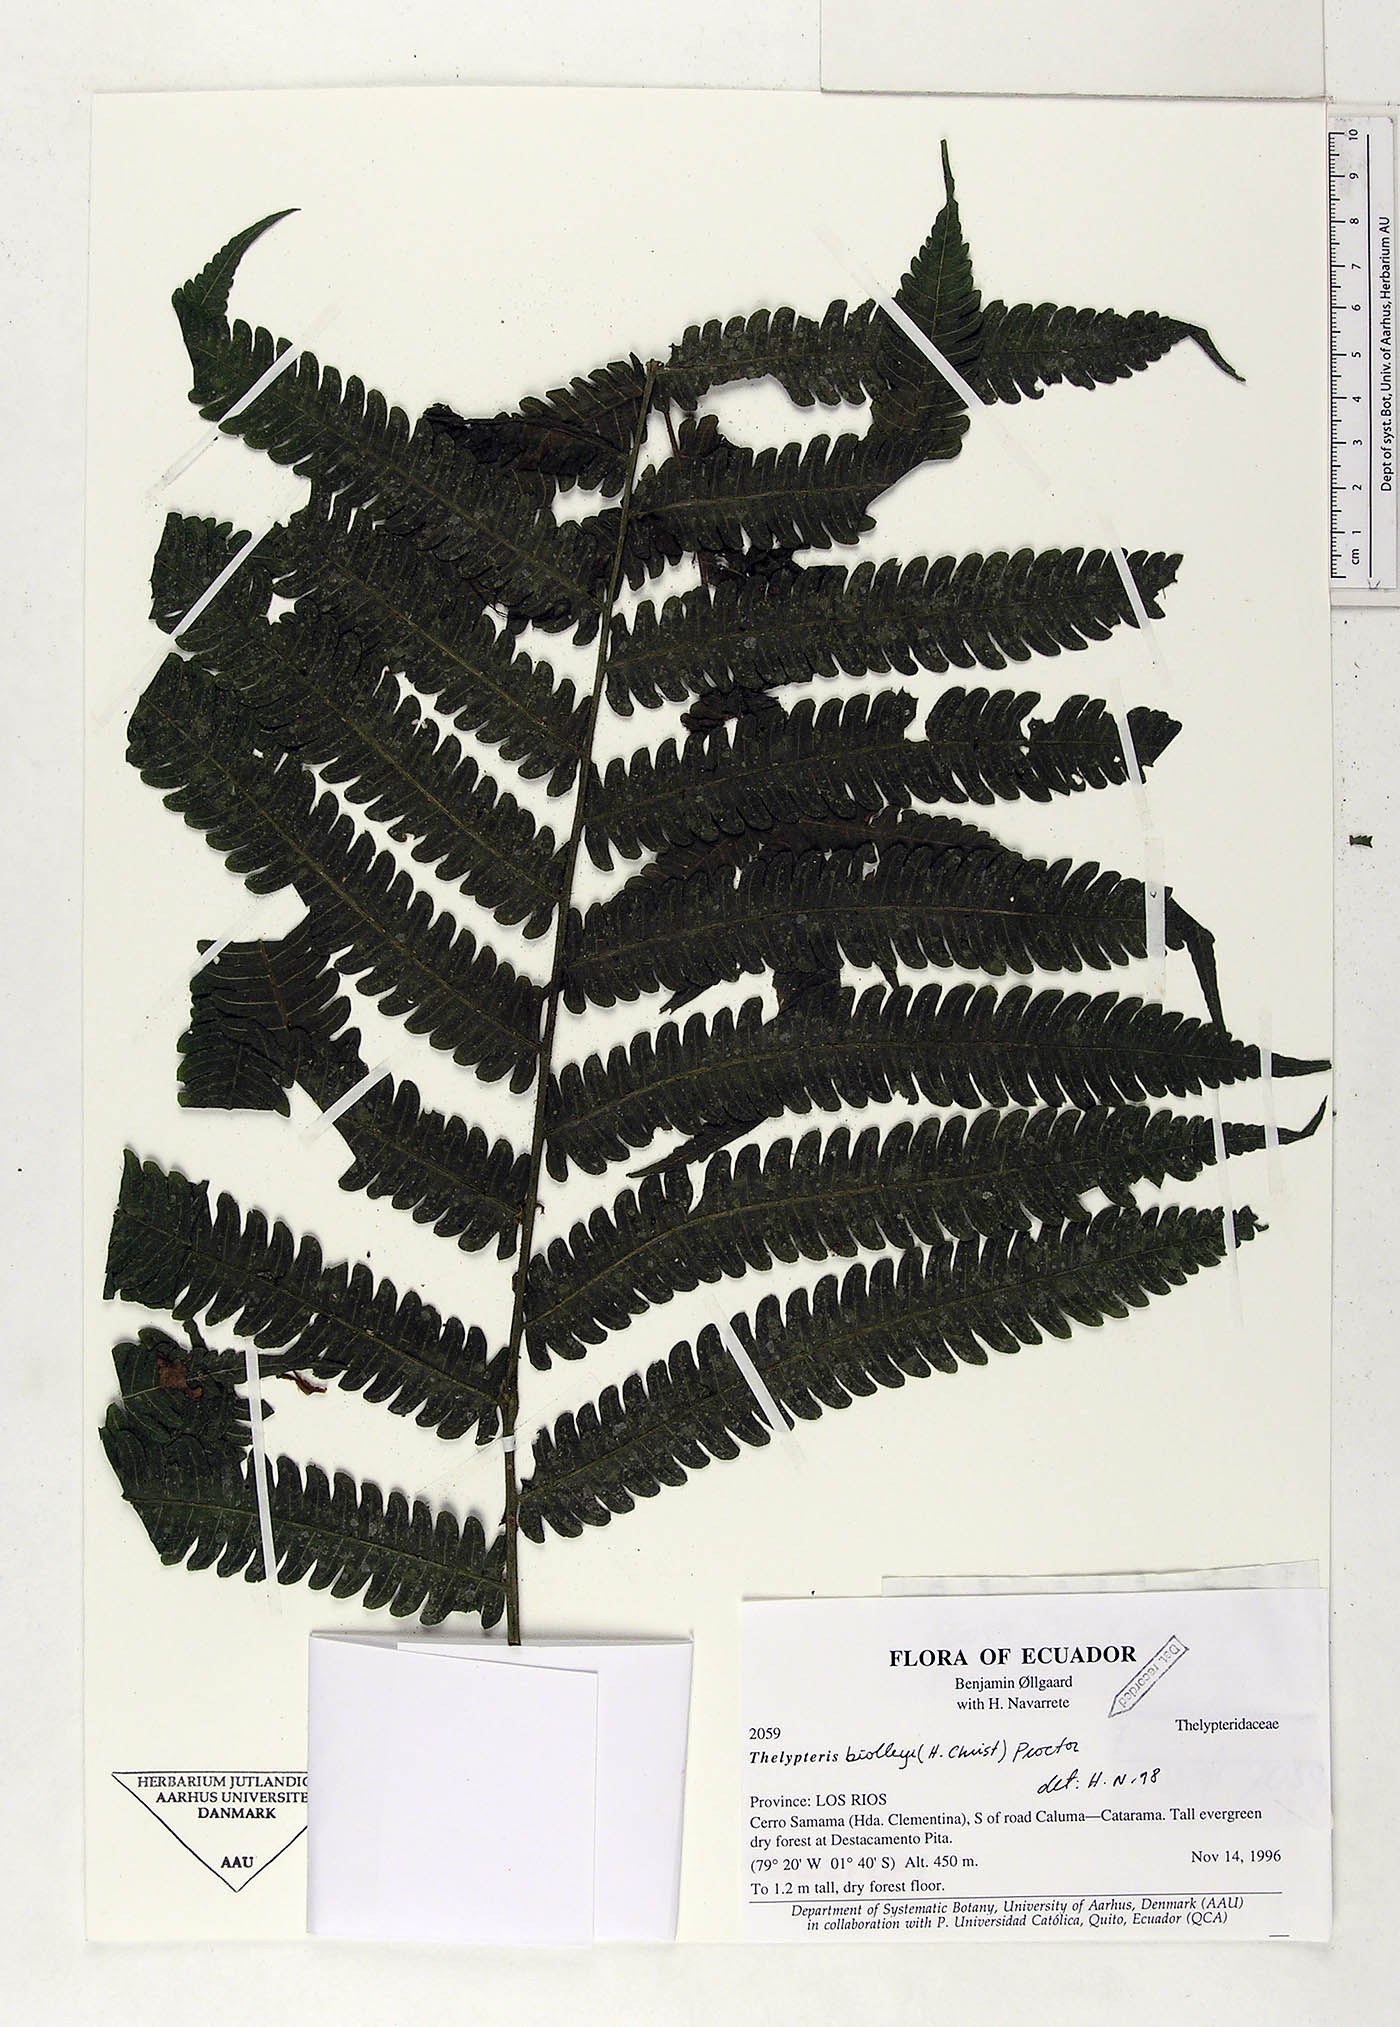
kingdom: Plantae
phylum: Tracheophyta
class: Polypodiopsida
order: Polypodiales
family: Thelypteridaceae
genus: Goniopteris
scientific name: Goniopteris biolleyi
